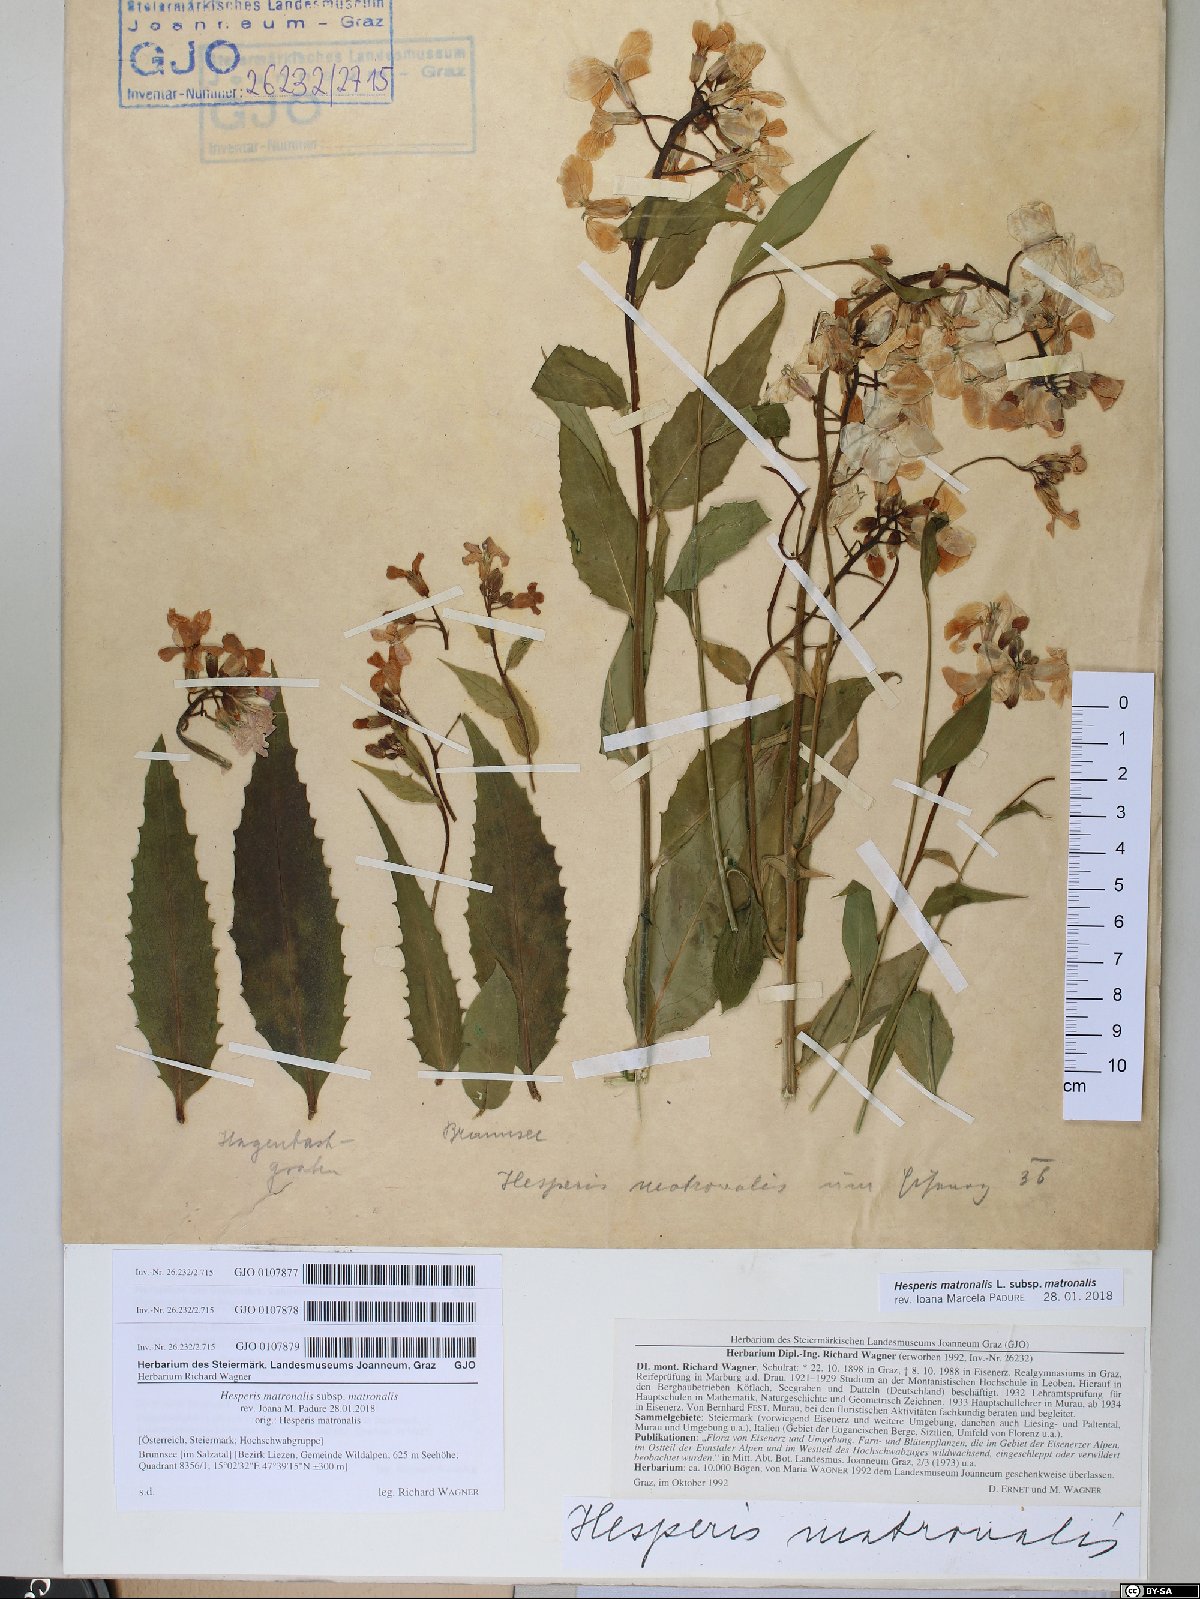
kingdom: Plantae
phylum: Tracheophyta
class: Magnoliopsida
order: Brassicales
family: Brassicaceae
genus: Hesperis
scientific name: Hesperis matronalis
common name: Dame's-violet
